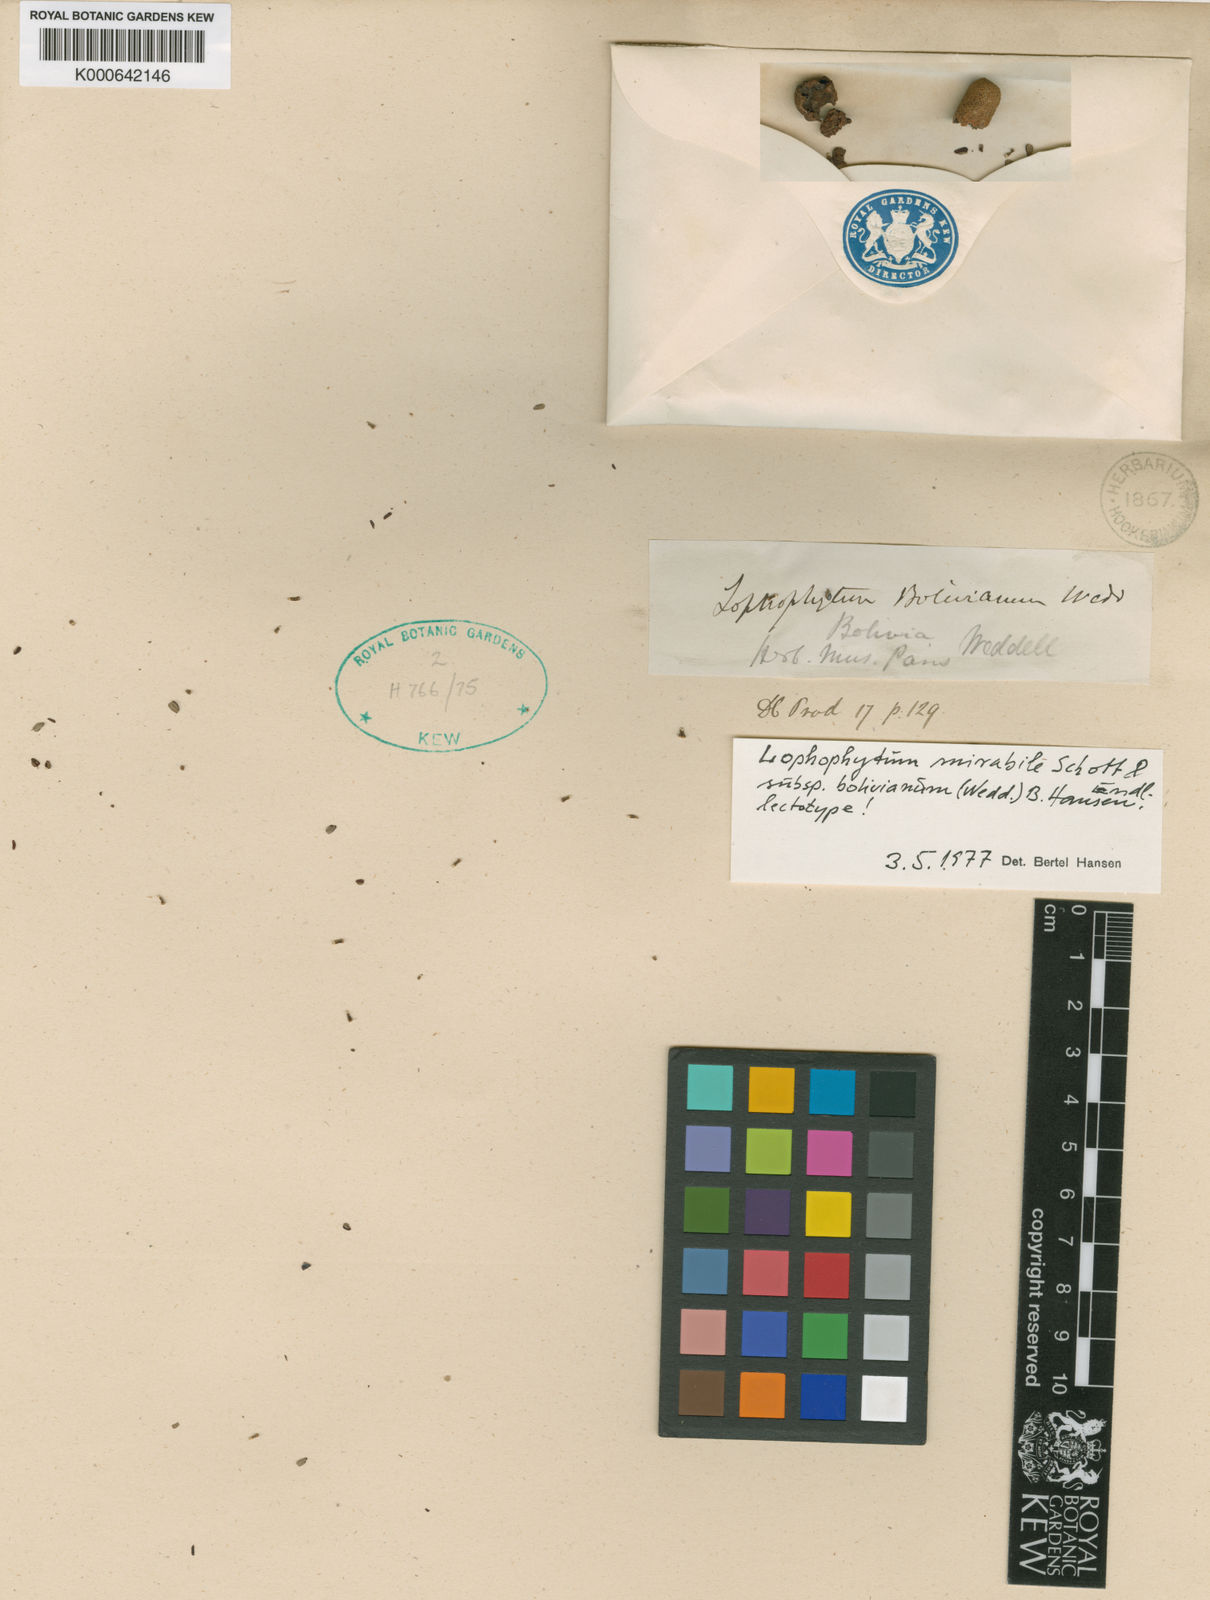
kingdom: Plantae
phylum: Tracheophyta
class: Magnoliopsida
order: Santalales
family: Balanophoraceae
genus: Lophophytum
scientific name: Lophophytum mirabile
